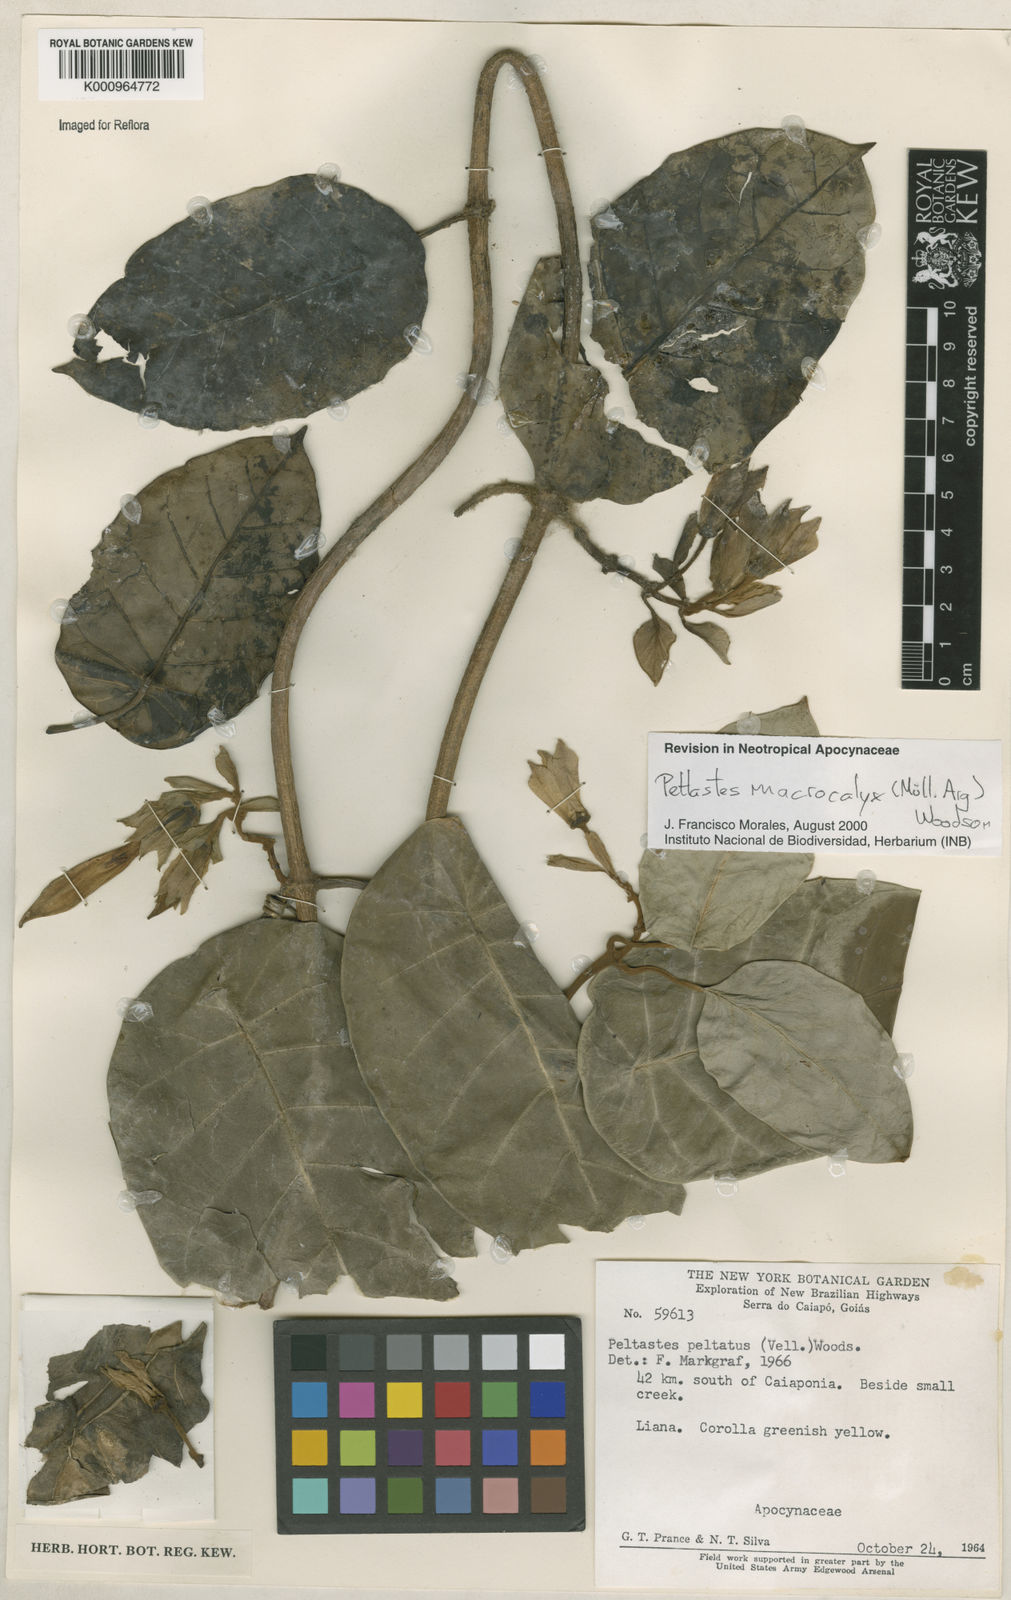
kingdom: Plantae
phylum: Tracheophyta
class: Magnoliopsida
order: Gentianales
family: Apocynaceae
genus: Macropharynx
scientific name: Macropharynx
